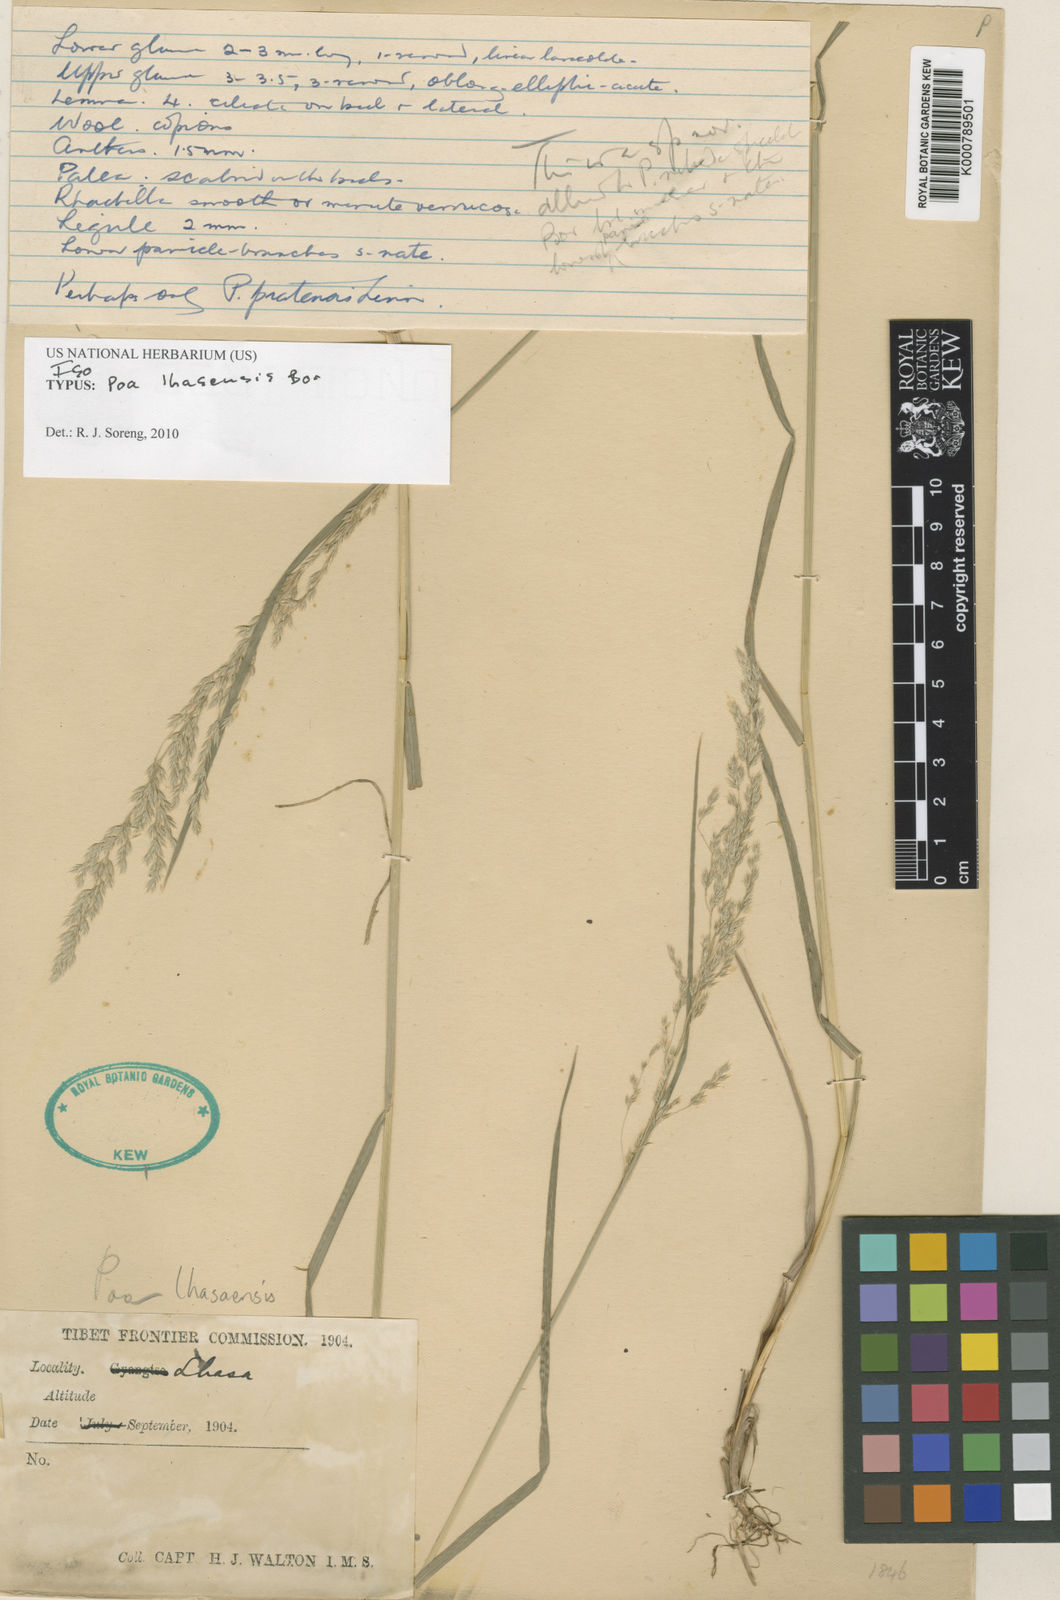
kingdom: Plantae
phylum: Tracheophyta
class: Liliopsida
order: Poales
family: Poaceae
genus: Poa
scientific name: Poa lhasaensis
